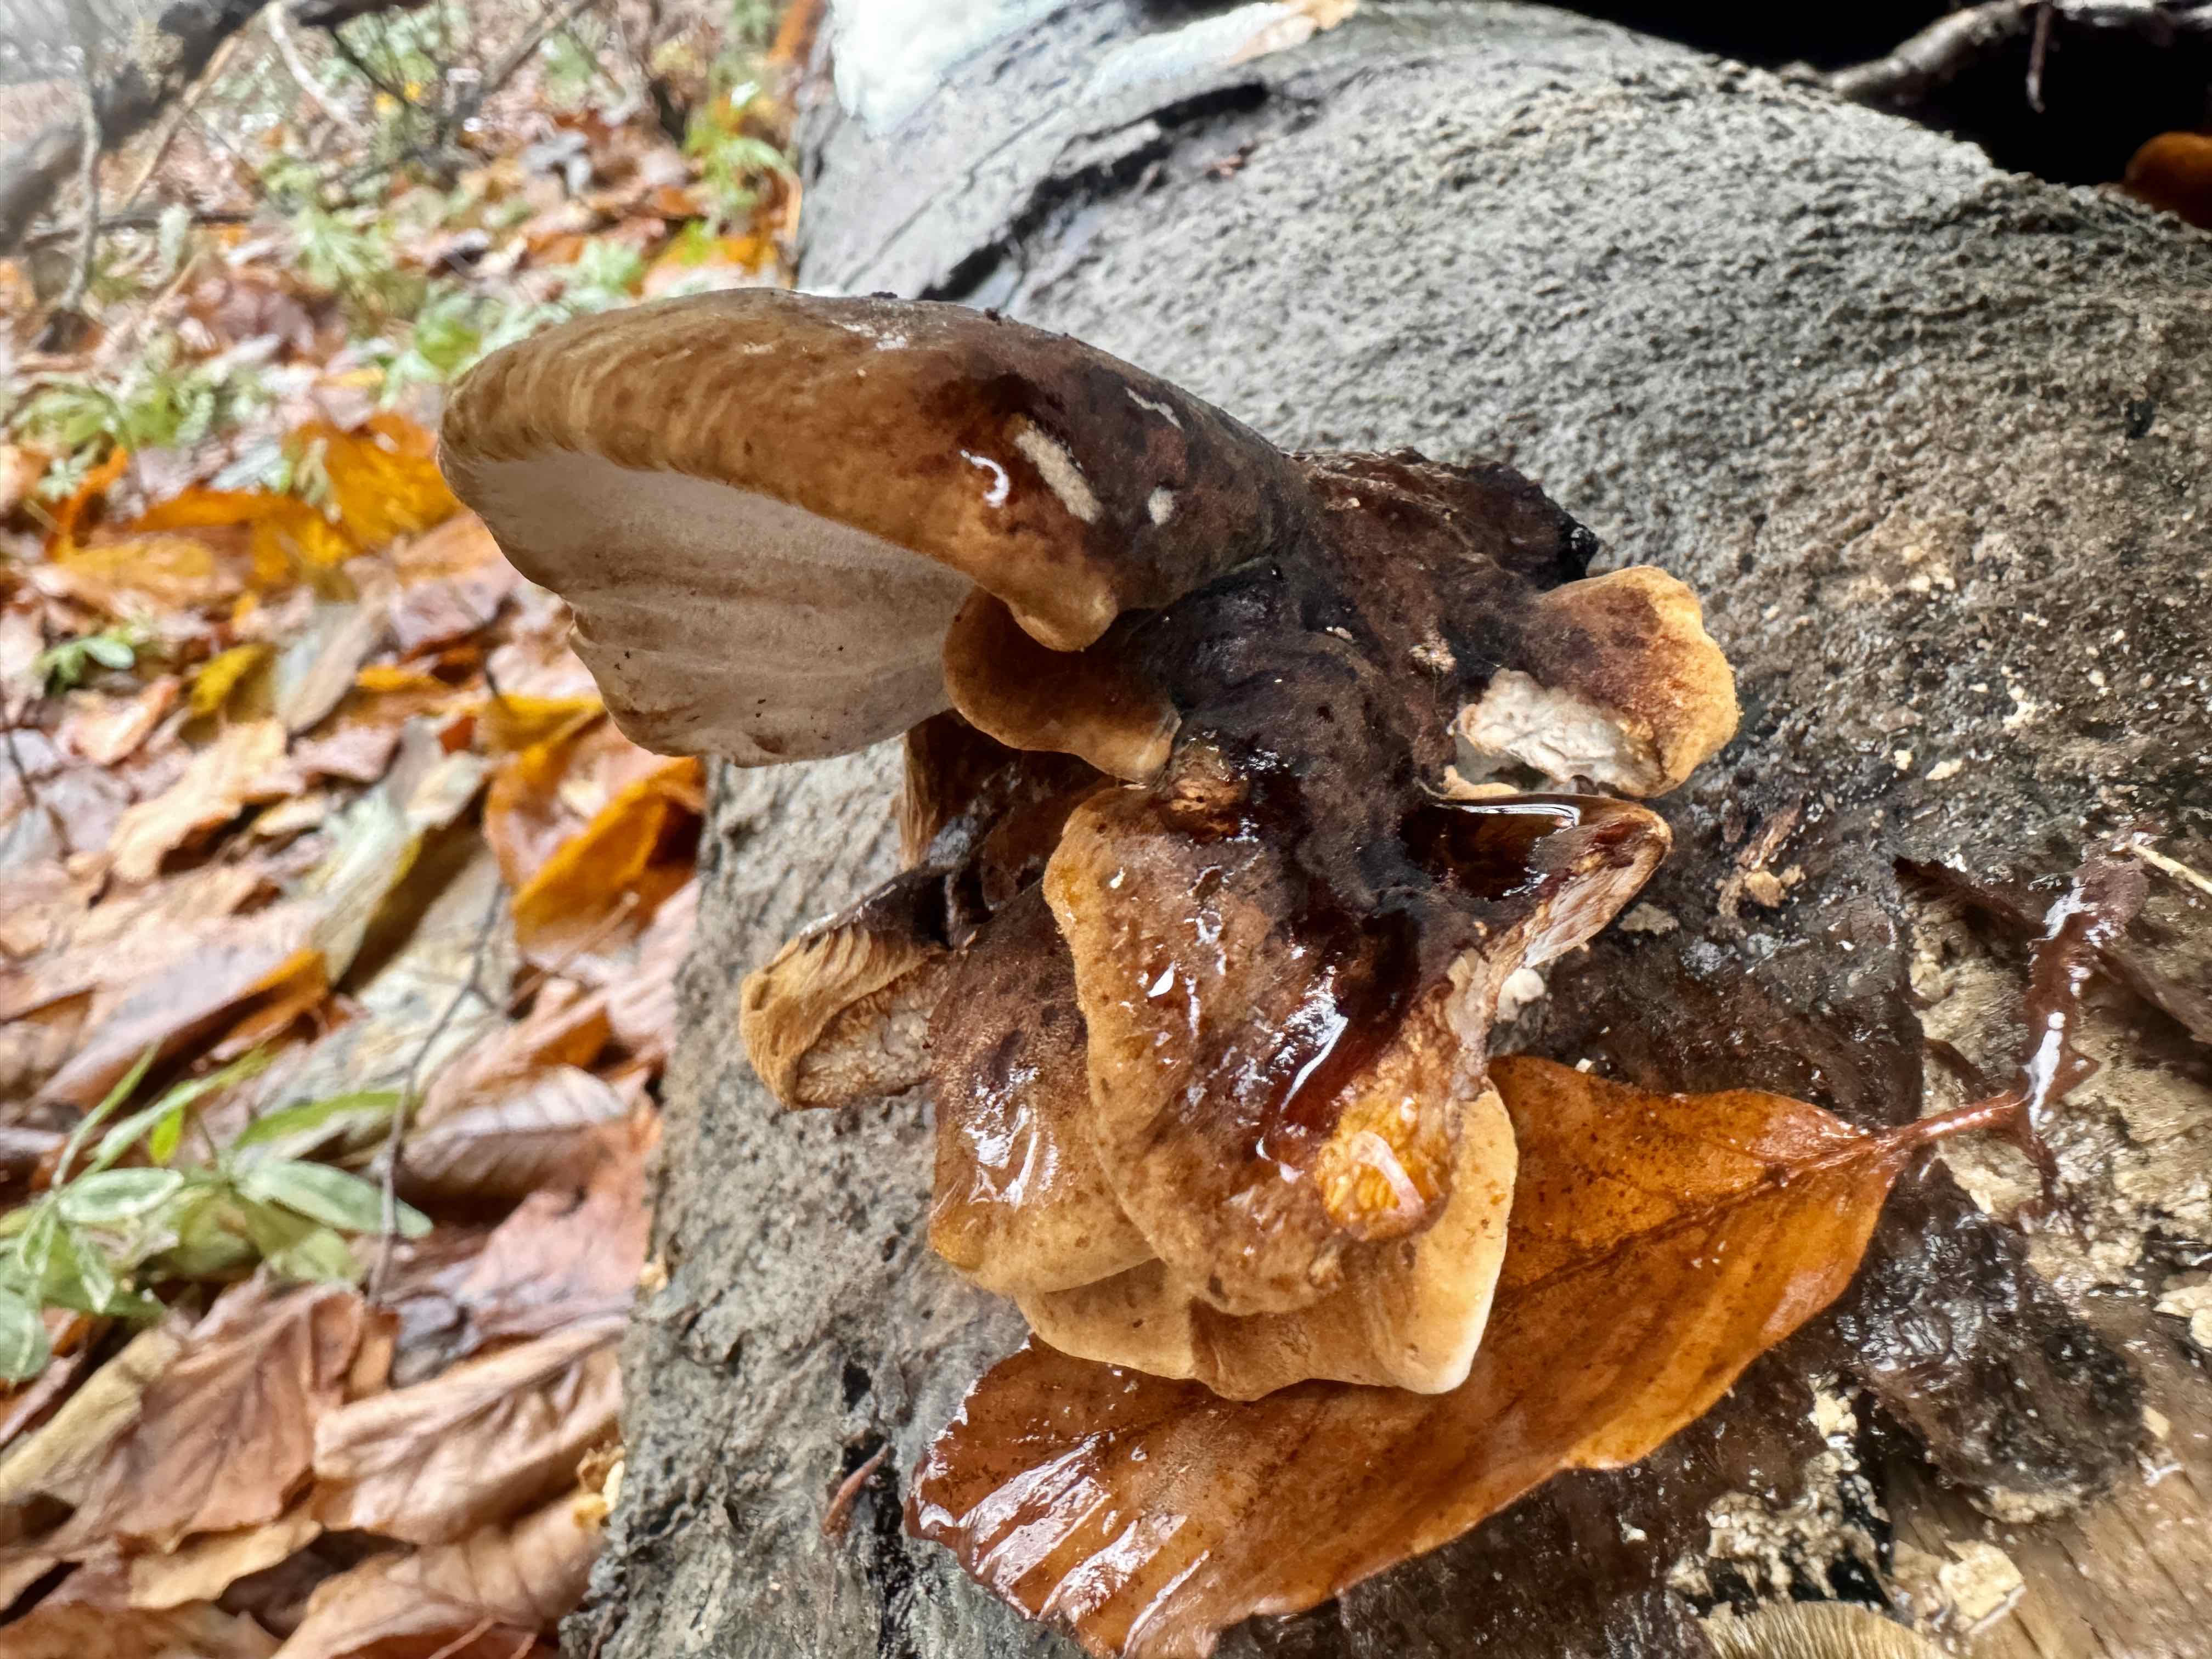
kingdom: Fungi
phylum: Basidiomycota
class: Agaricomycetes
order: Polyporales
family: Ischnodermataceae
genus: Ischnoderma
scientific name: Ischnoderma resinosum
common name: løv-tjæreporesvamp
